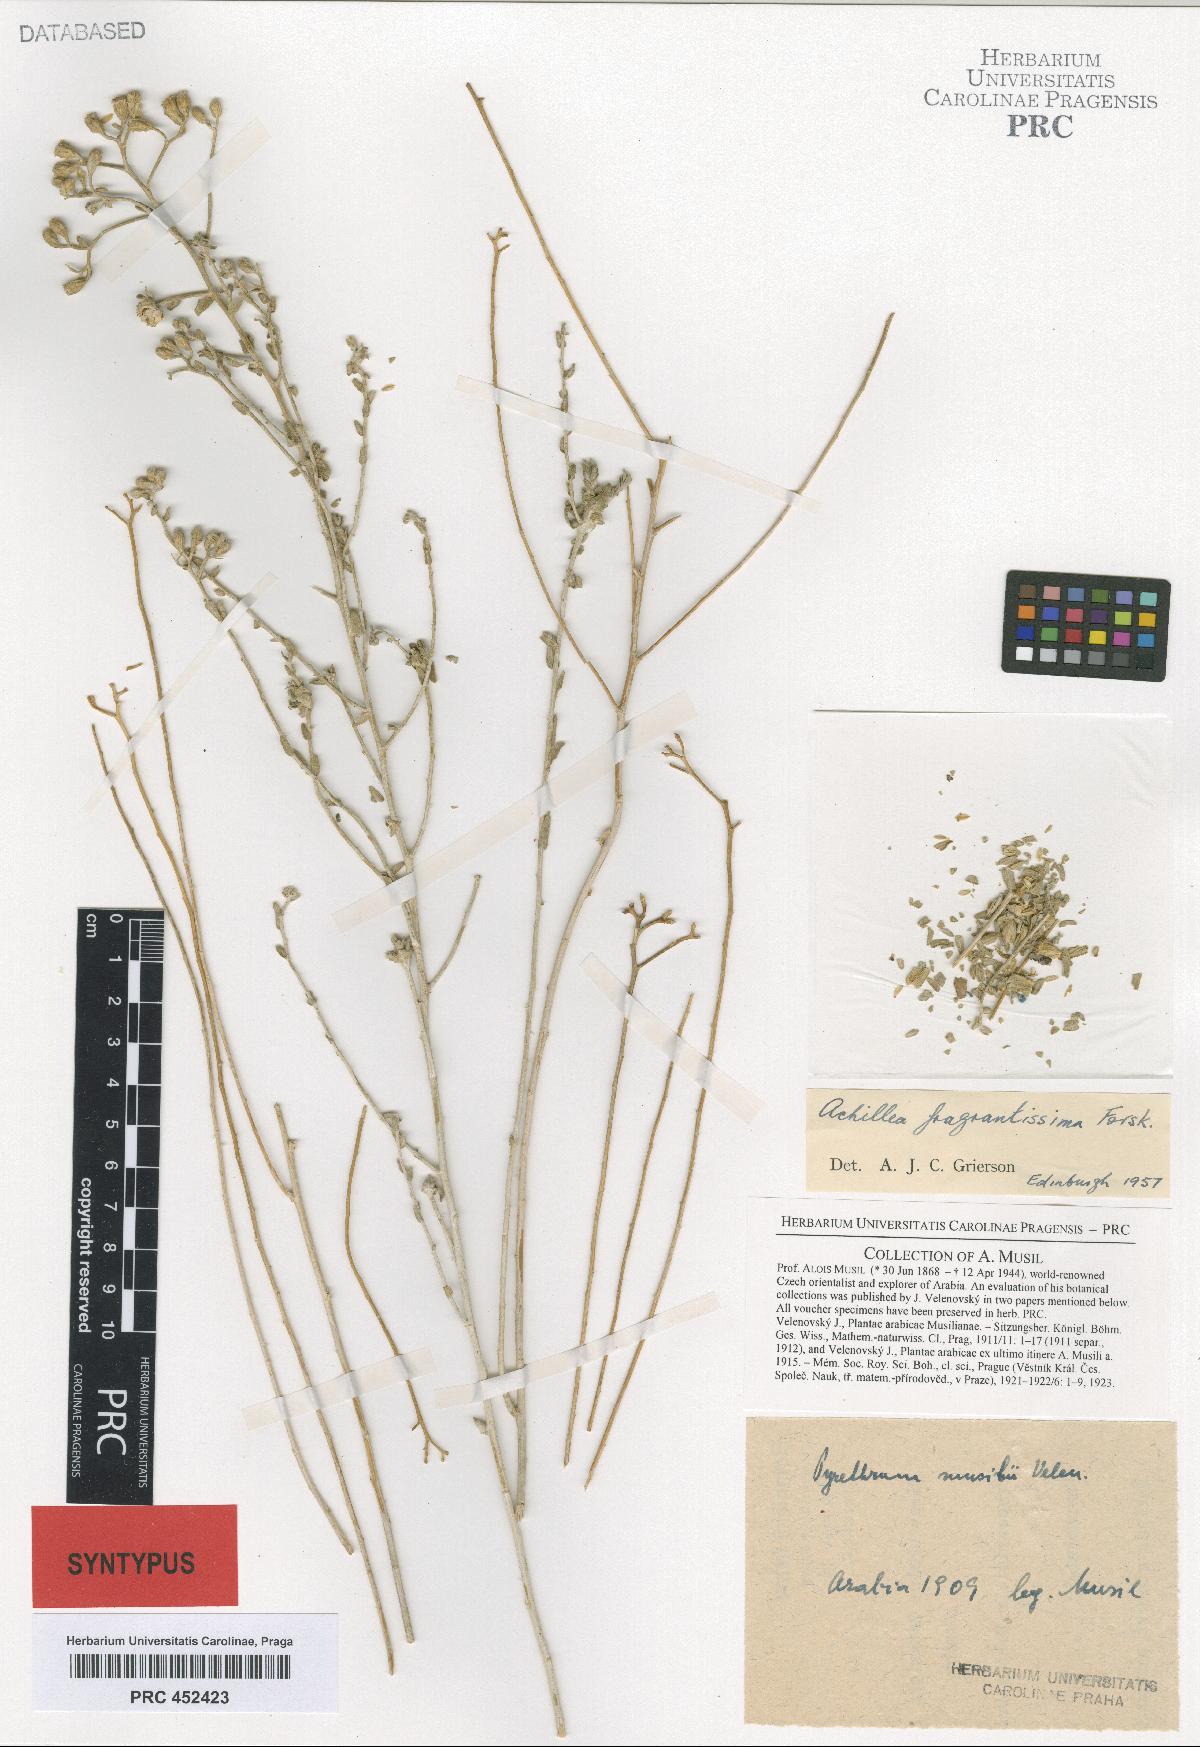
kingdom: Plantae
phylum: Tracheophyta
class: Magnoliopsida
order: Asterales
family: Asteraceae
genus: Tanacetum
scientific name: Tanacetum musili
